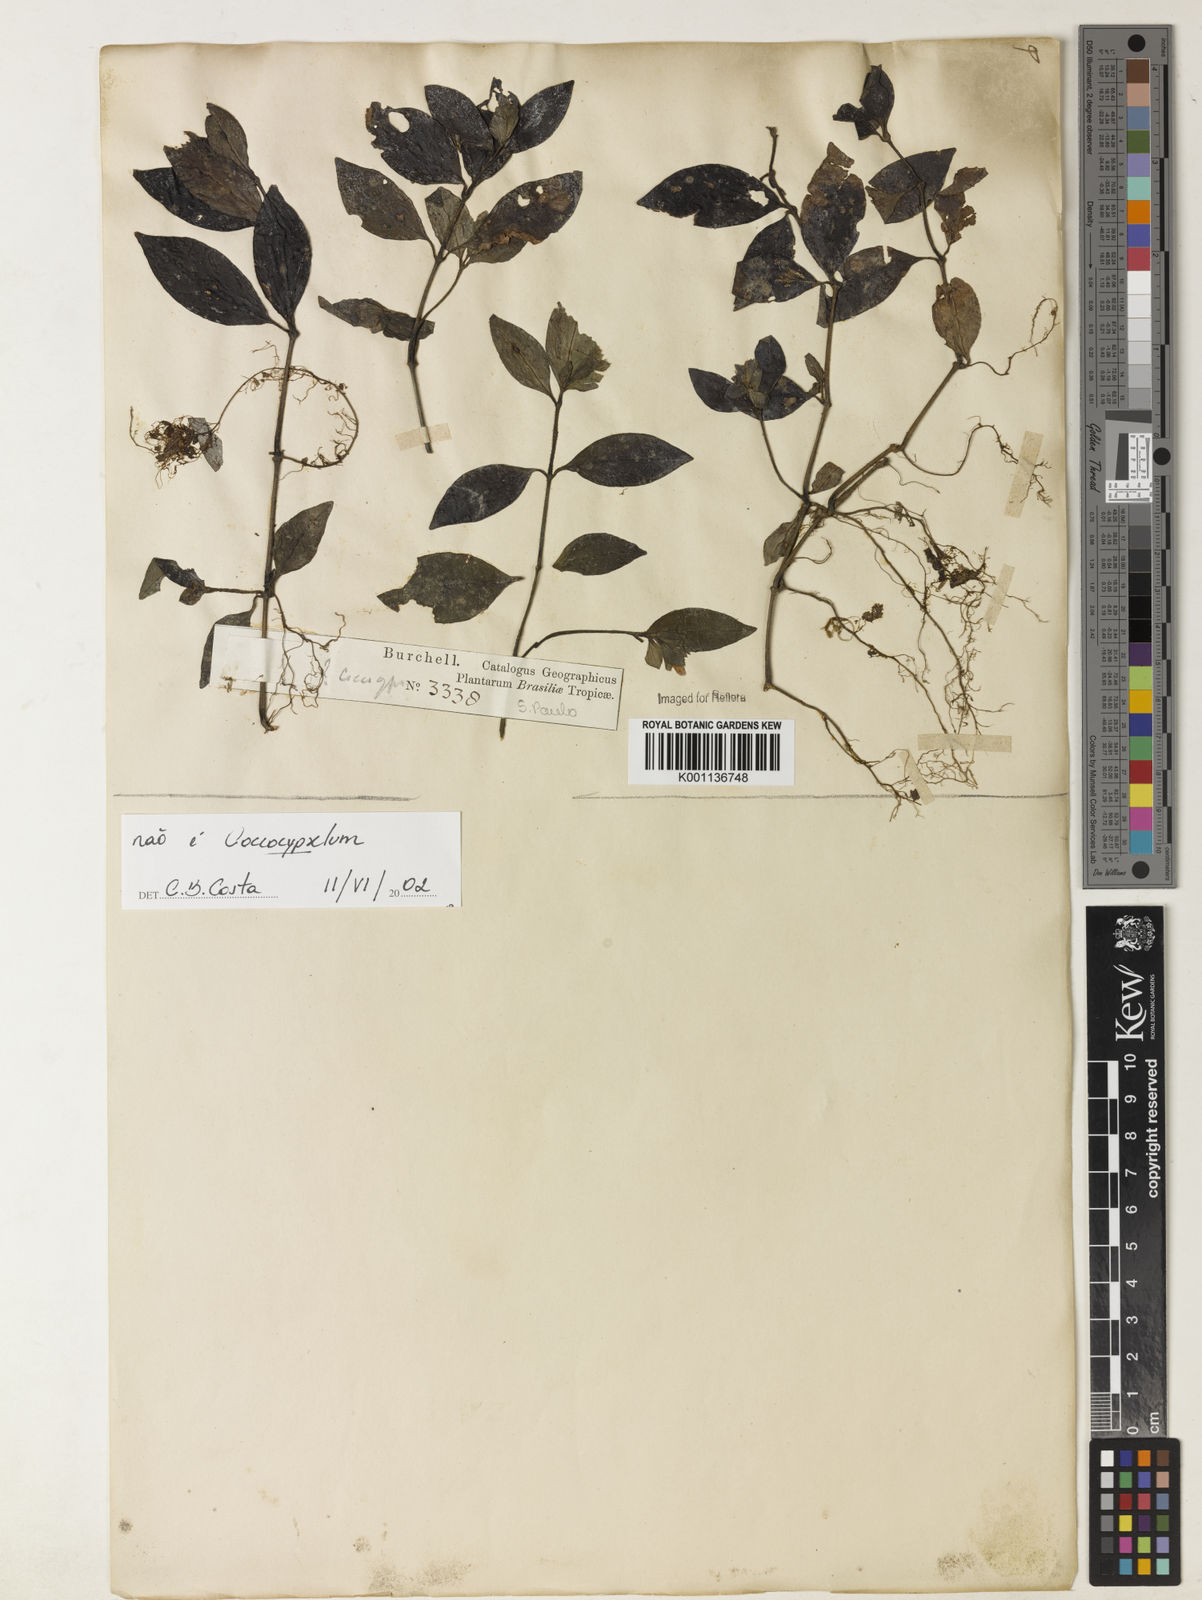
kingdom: Plantae
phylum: Tracheophyta
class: Magnoliopsida
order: Gentianales
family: Rubiaceae
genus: Coccocypselum
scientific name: Coccocypselum
